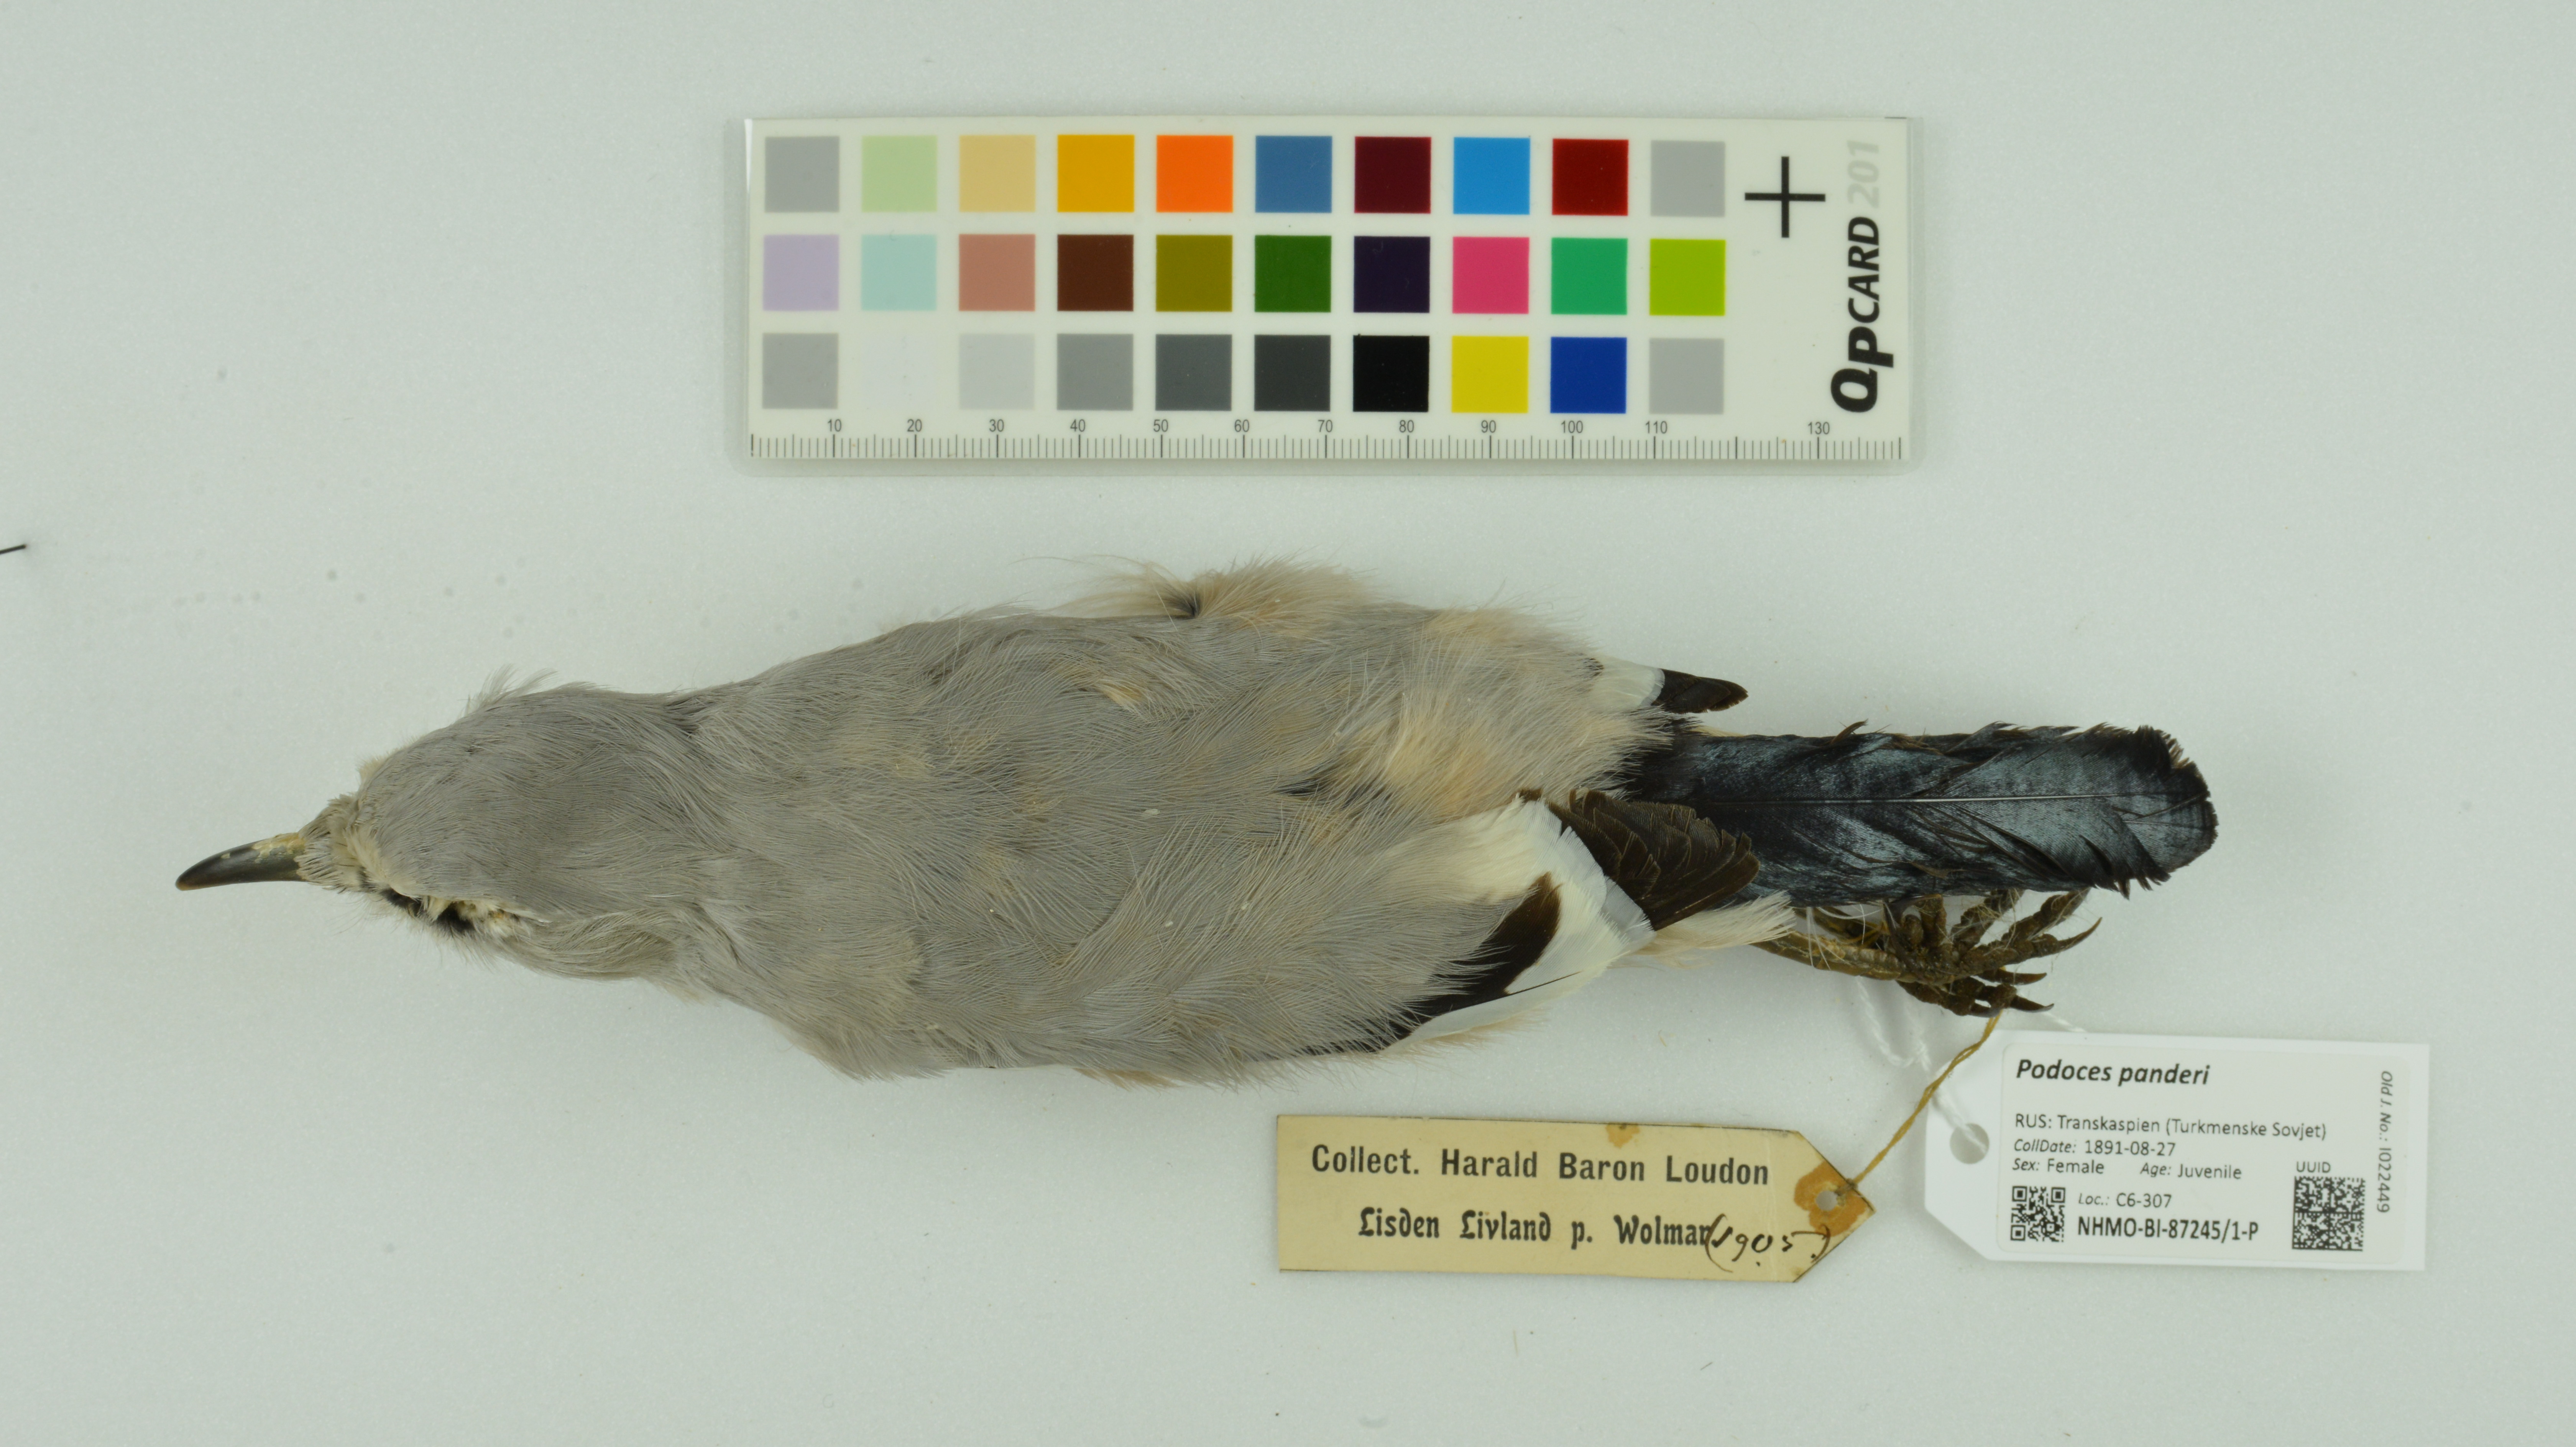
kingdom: Animalia
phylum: Chordata
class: Aves
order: Passeriformes
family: Corvidae
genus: Podoces
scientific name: Podoces panderi
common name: Pander's ground jay
